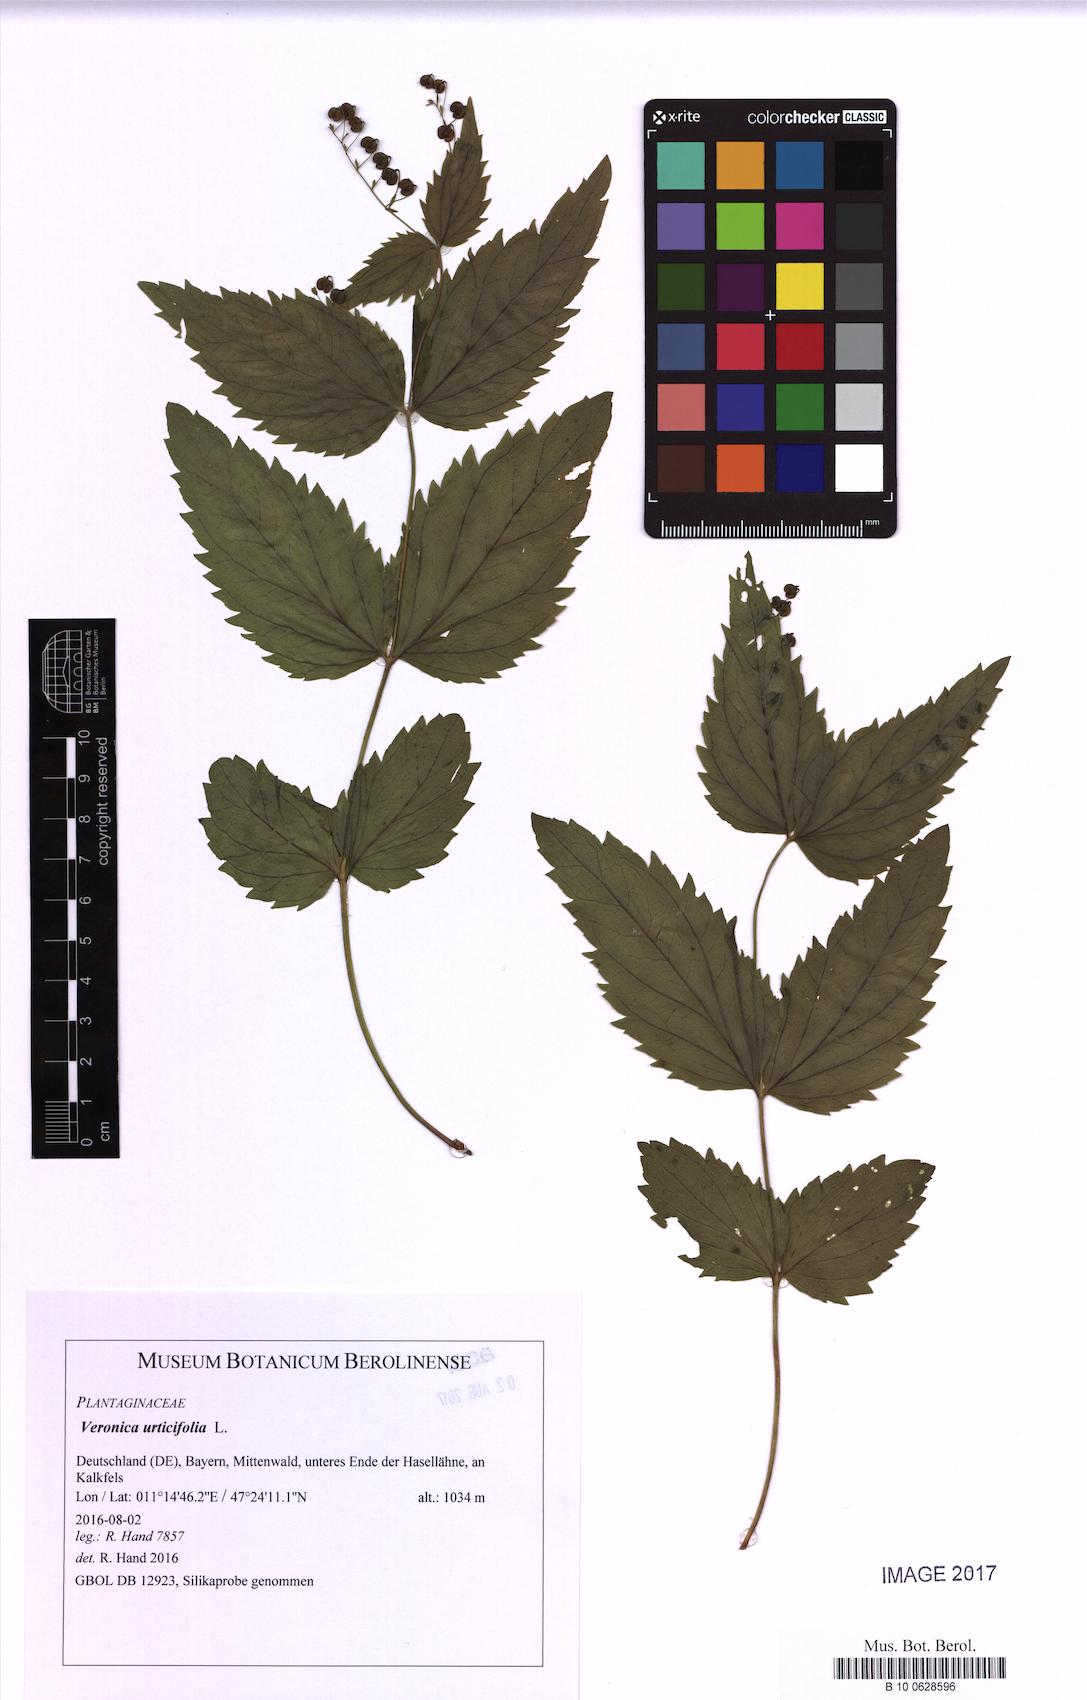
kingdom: Plantae
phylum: Tracheophyta
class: Magnoliopsida
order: Lamiales
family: Plantaginaceae
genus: Veronica
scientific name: Veronica
